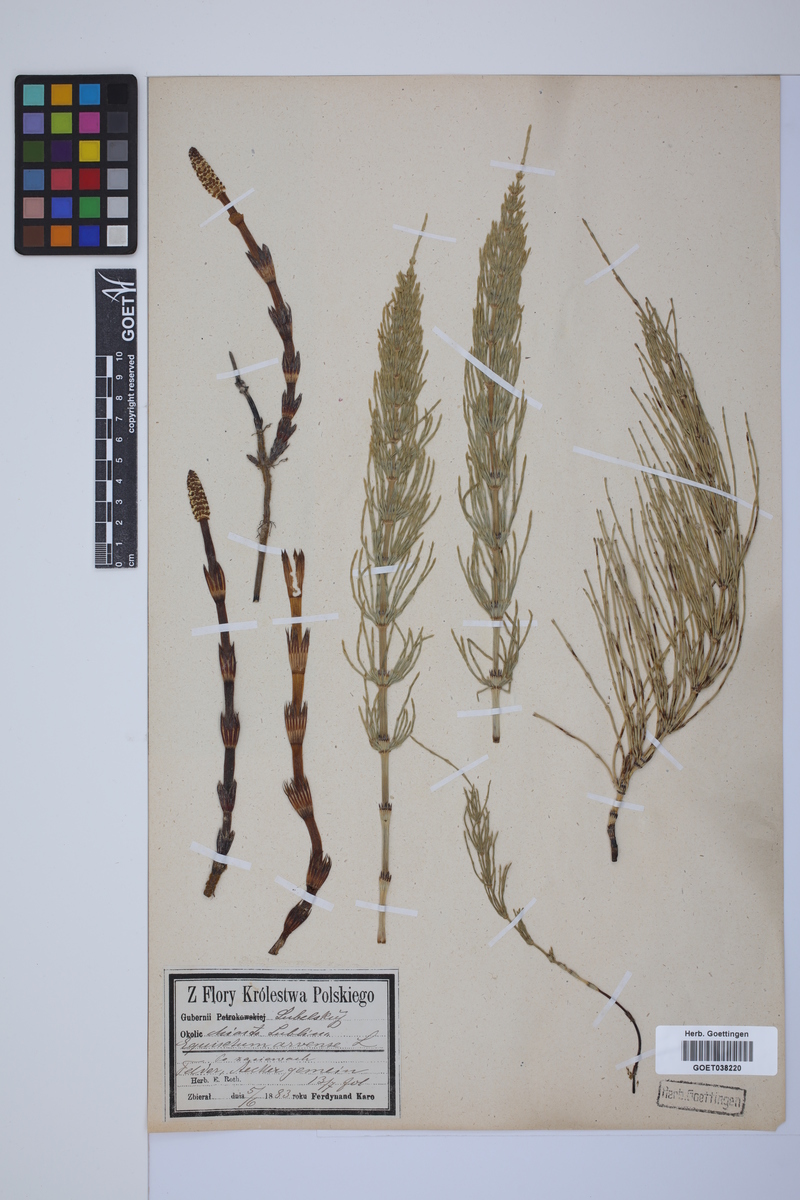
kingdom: Plantae
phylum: Tracheophyta
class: Polypodiopsida
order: Equisetales
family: Equisetaceae
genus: Equisetum
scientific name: Equisetum arvense
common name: Field horsetail
